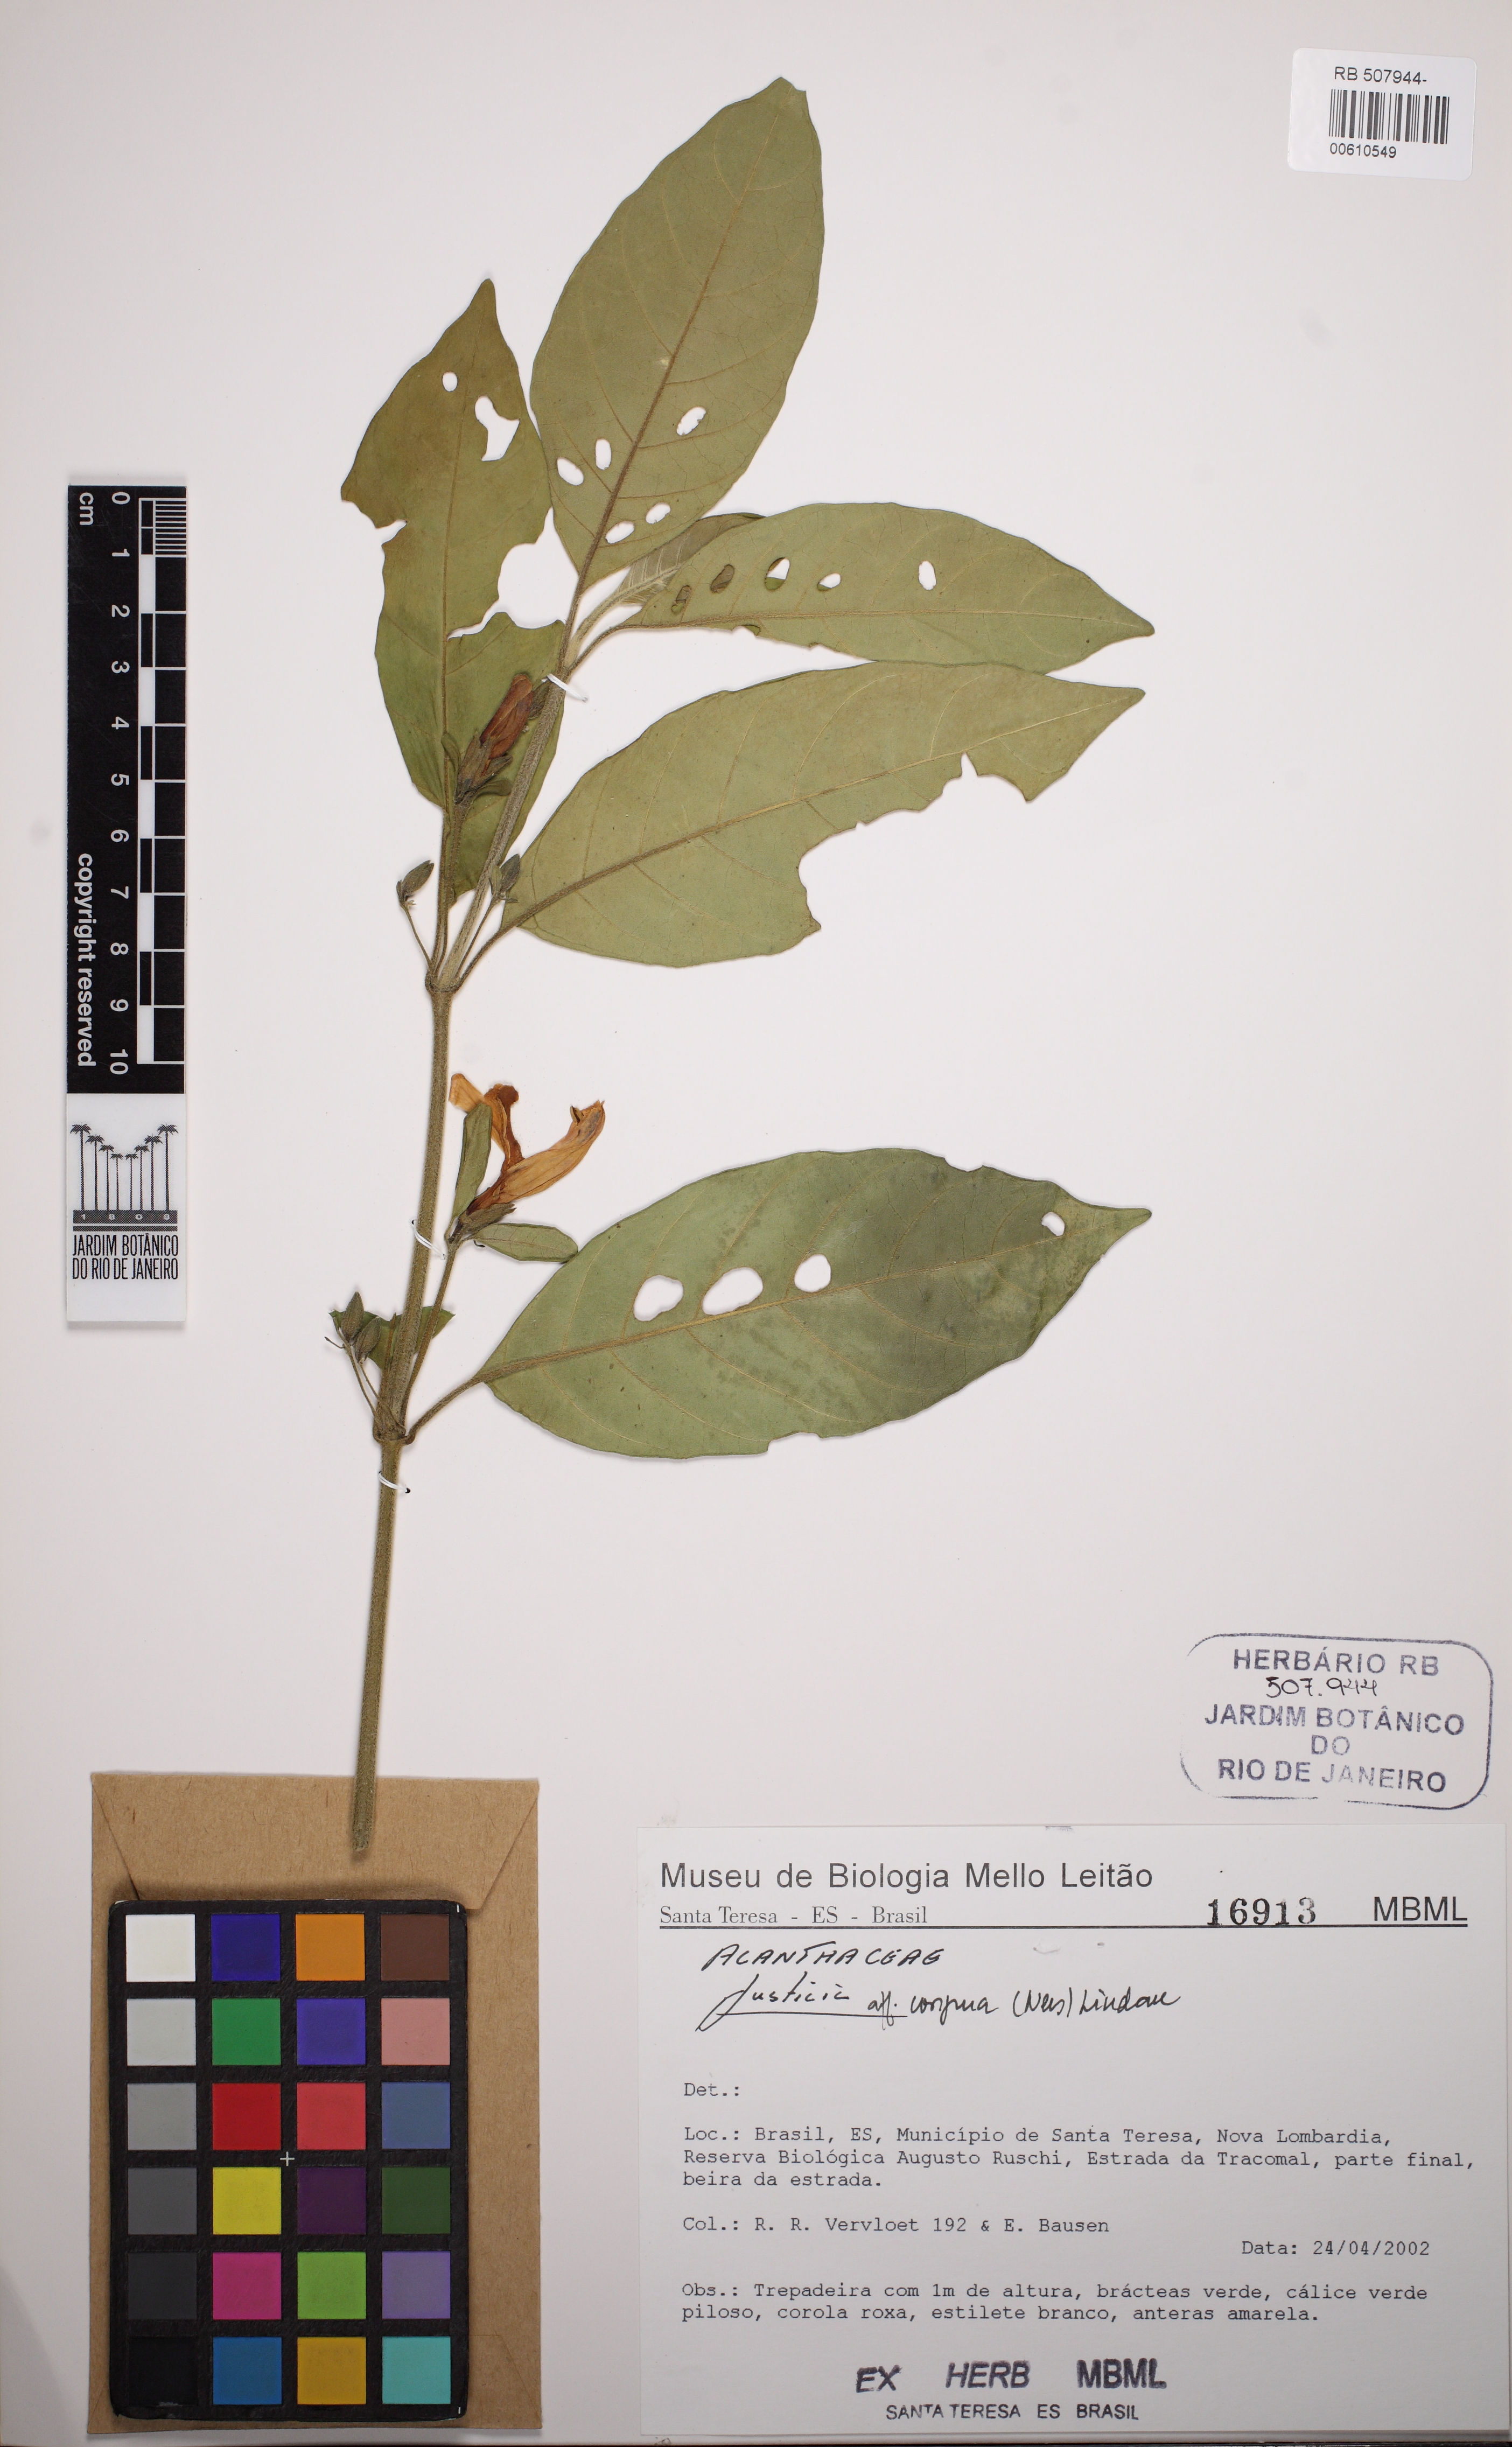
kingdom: Plantae
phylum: Tracheophyta
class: Magnoliopsida
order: Lamiales
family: Acanthaceae
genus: Justicia
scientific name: Justicia congrua
